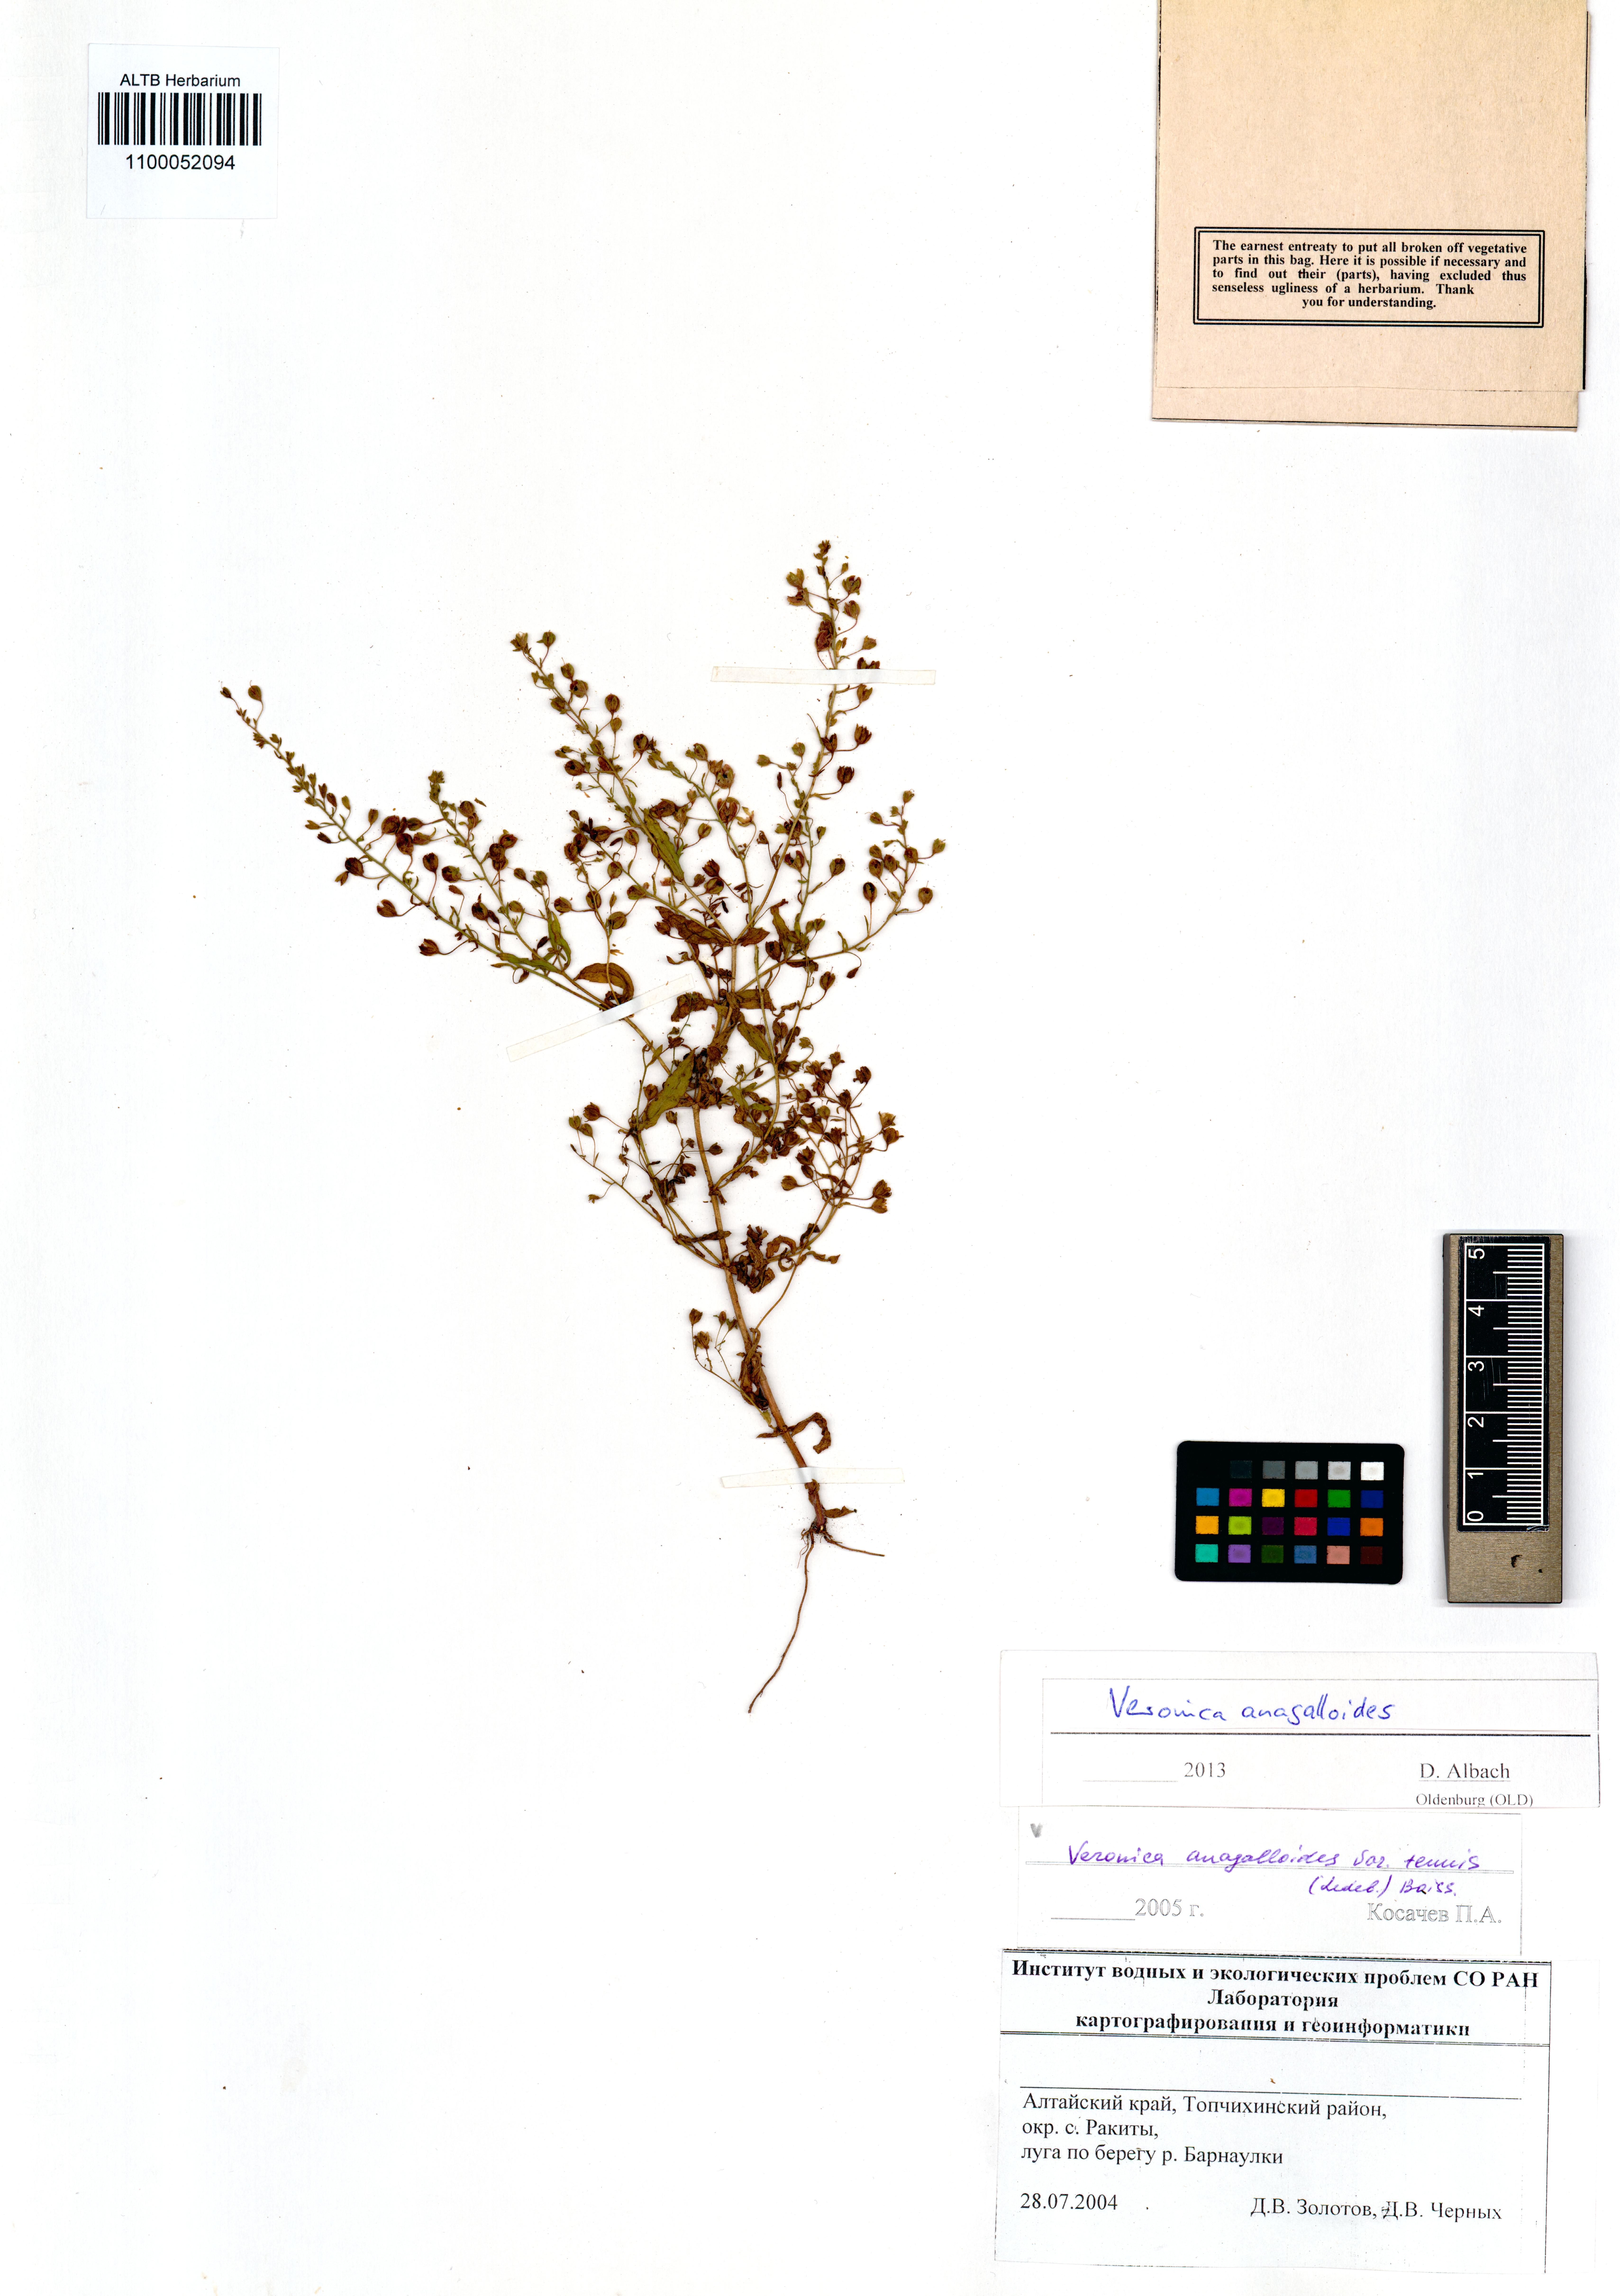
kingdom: Plantae
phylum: Tracheophyta
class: Magnoliopsida
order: Lamiales
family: Plantaginaceae
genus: Veronica
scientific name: Veronica anagalloides
